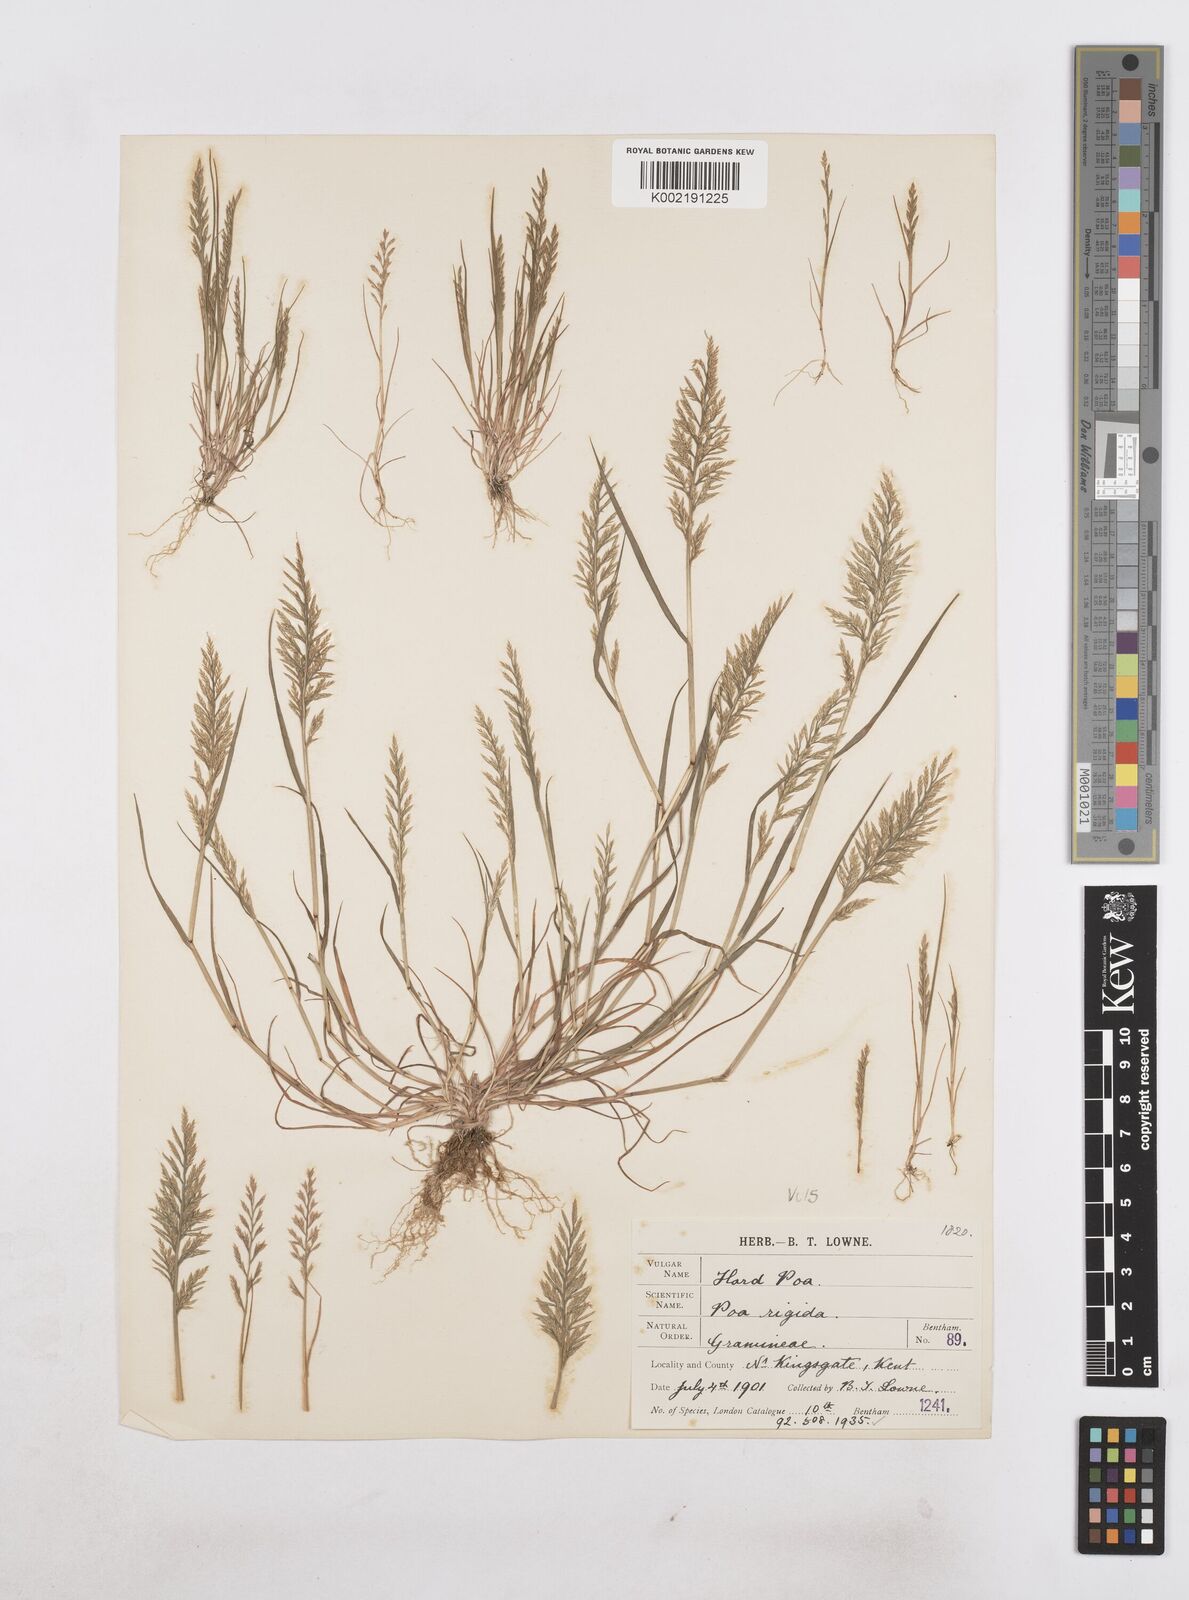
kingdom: Plantae
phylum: Tracheophyta
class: Liliopsida
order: Poales
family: Poaceae
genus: Catapodium
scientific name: Catapodium rigidum
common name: Fern-grass
